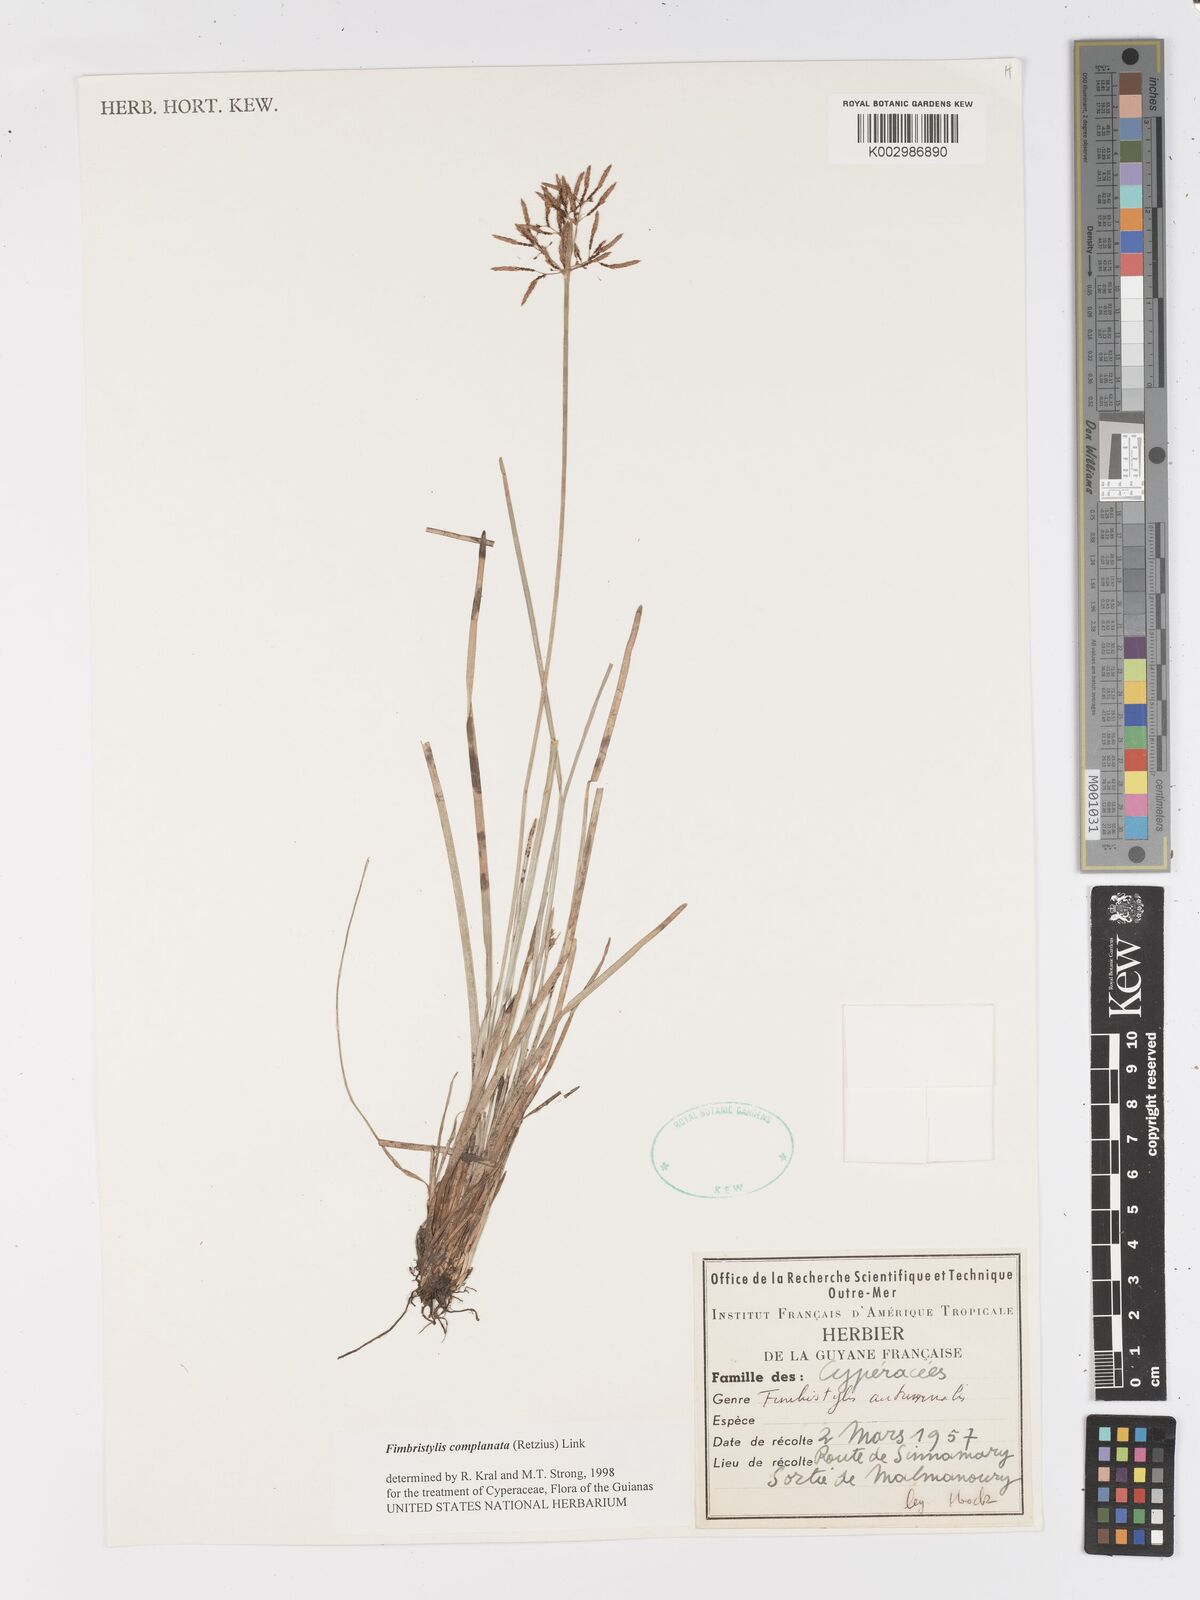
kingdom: Plantae
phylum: Tracheophyta
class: Liliopsida
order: Poales
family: Cyperaceae
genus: Fimbristylis
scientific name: Fimbristylis complanata
